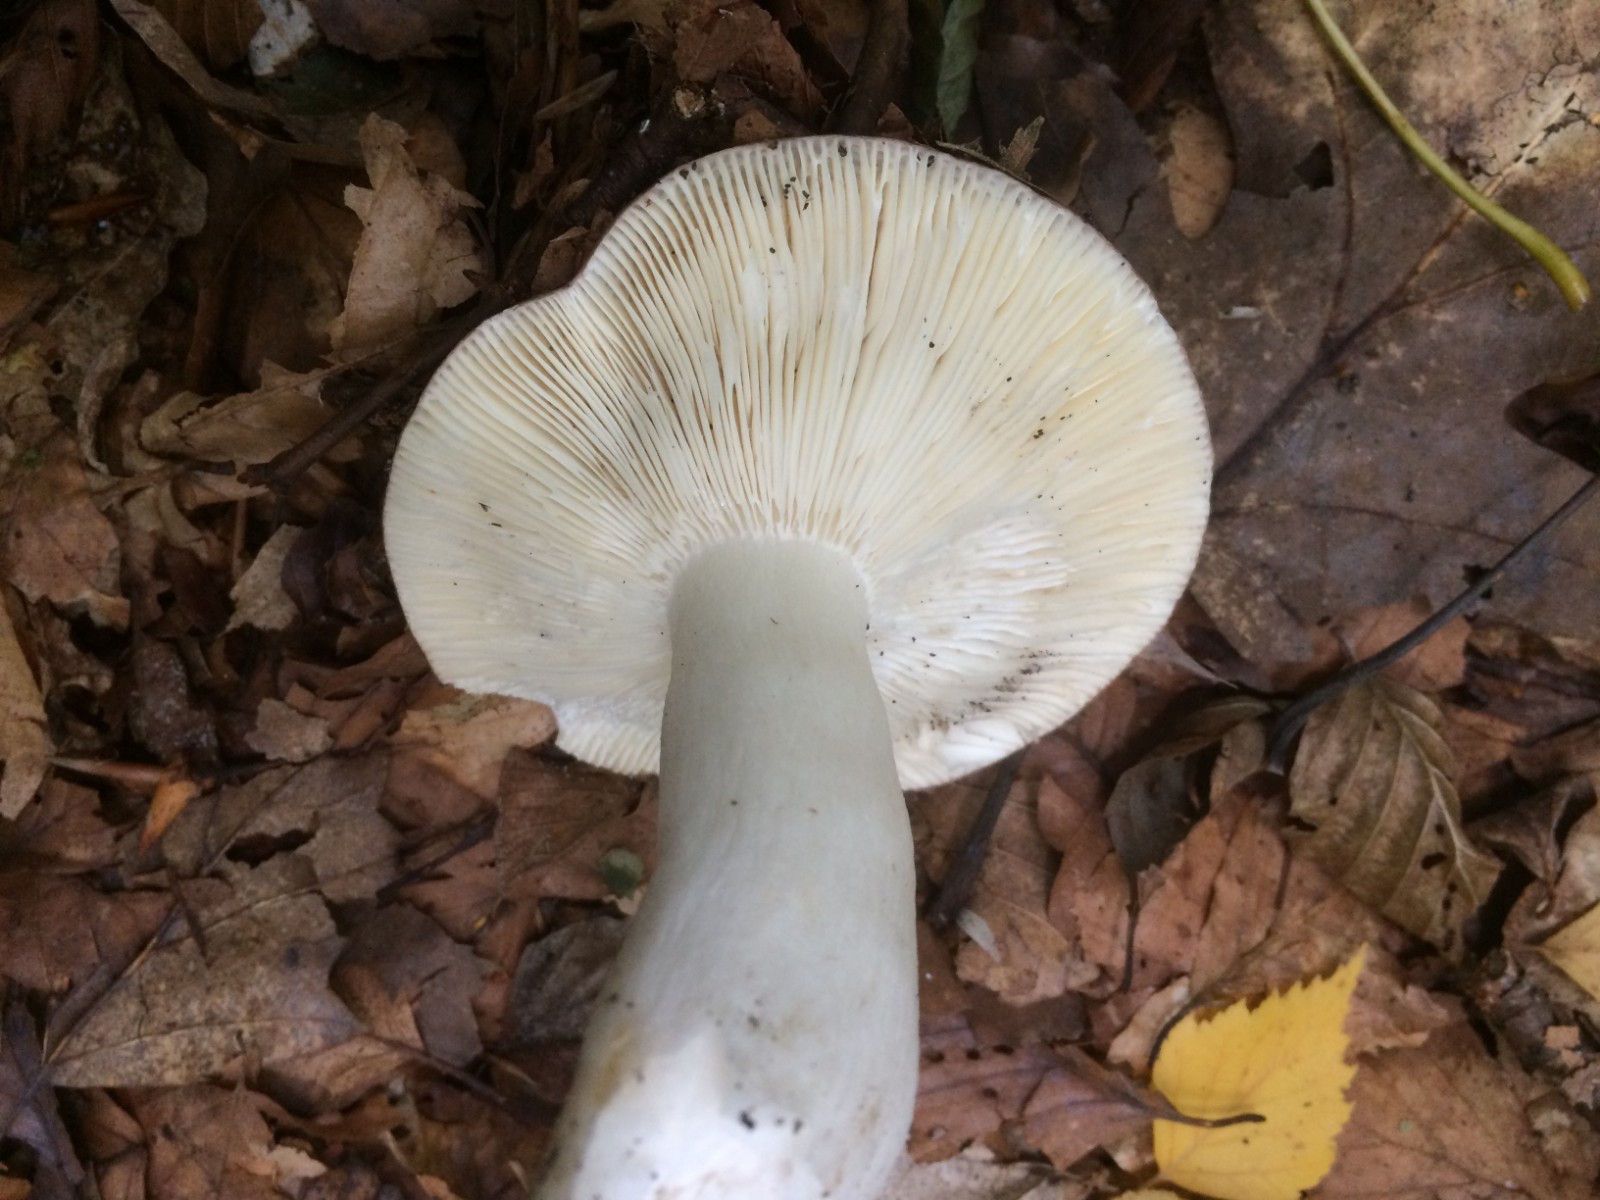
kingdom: Fungi
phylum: Basidiomycota
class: Agaricomycetes
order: Russulales
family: Russulaceae
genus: Russula
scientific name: Russula cyanoxantha
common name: broget skørhat
